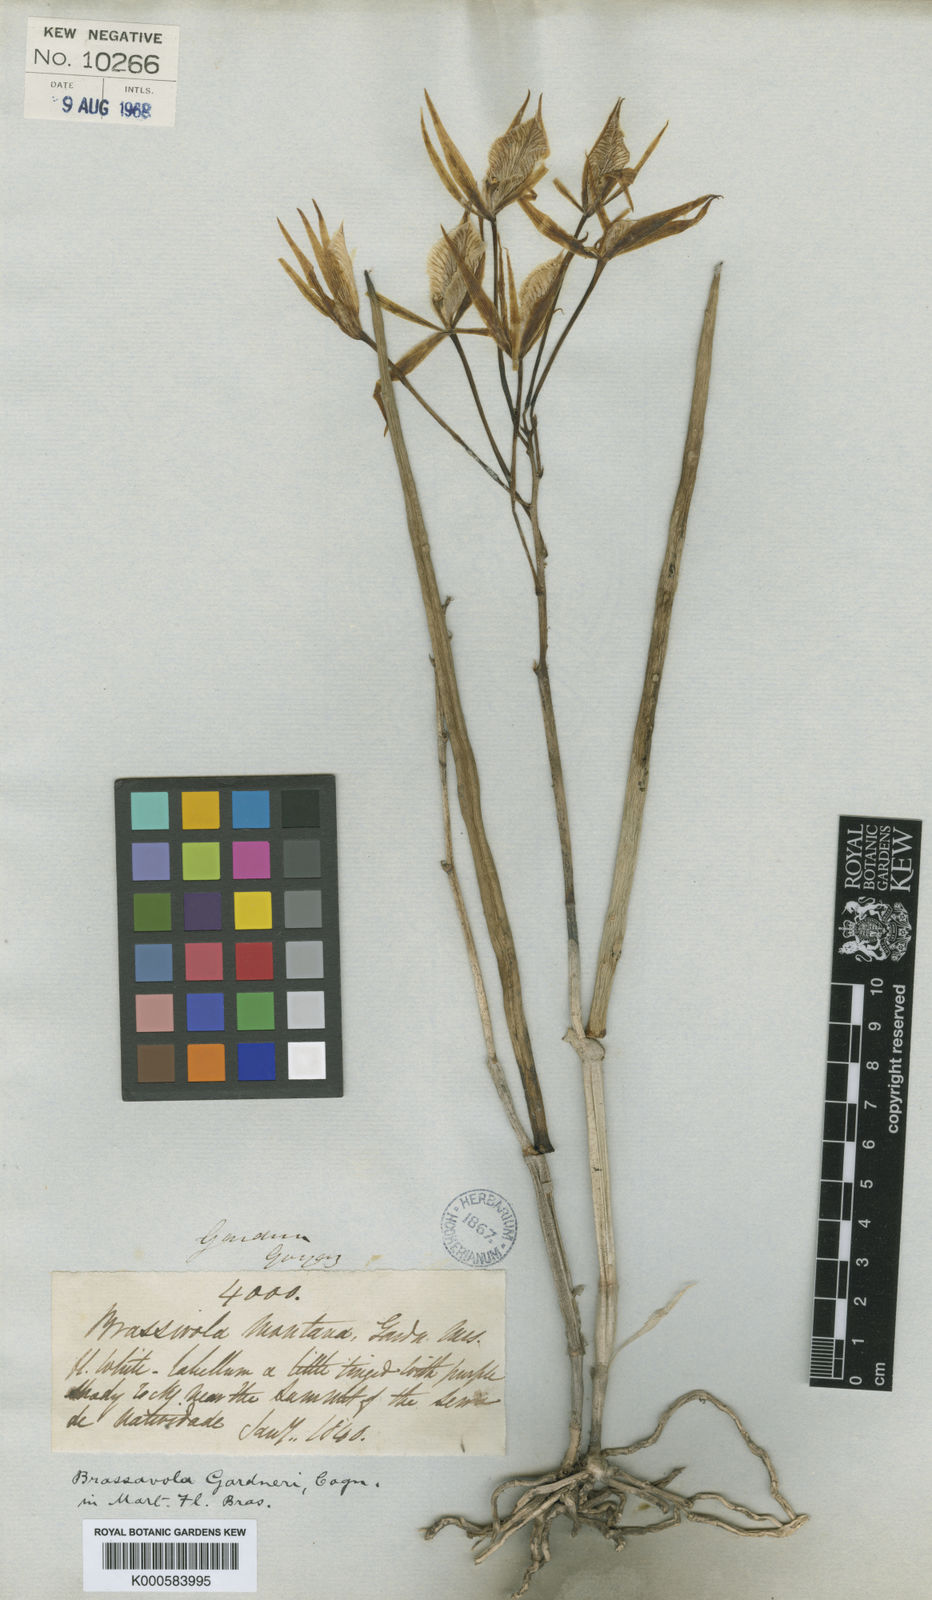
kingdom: Plantae
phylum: Tracheophyta
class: Liliopsida
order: Asparagales
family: Orchidaceae
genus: Brassavola
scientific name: Brassavola flagellaris
